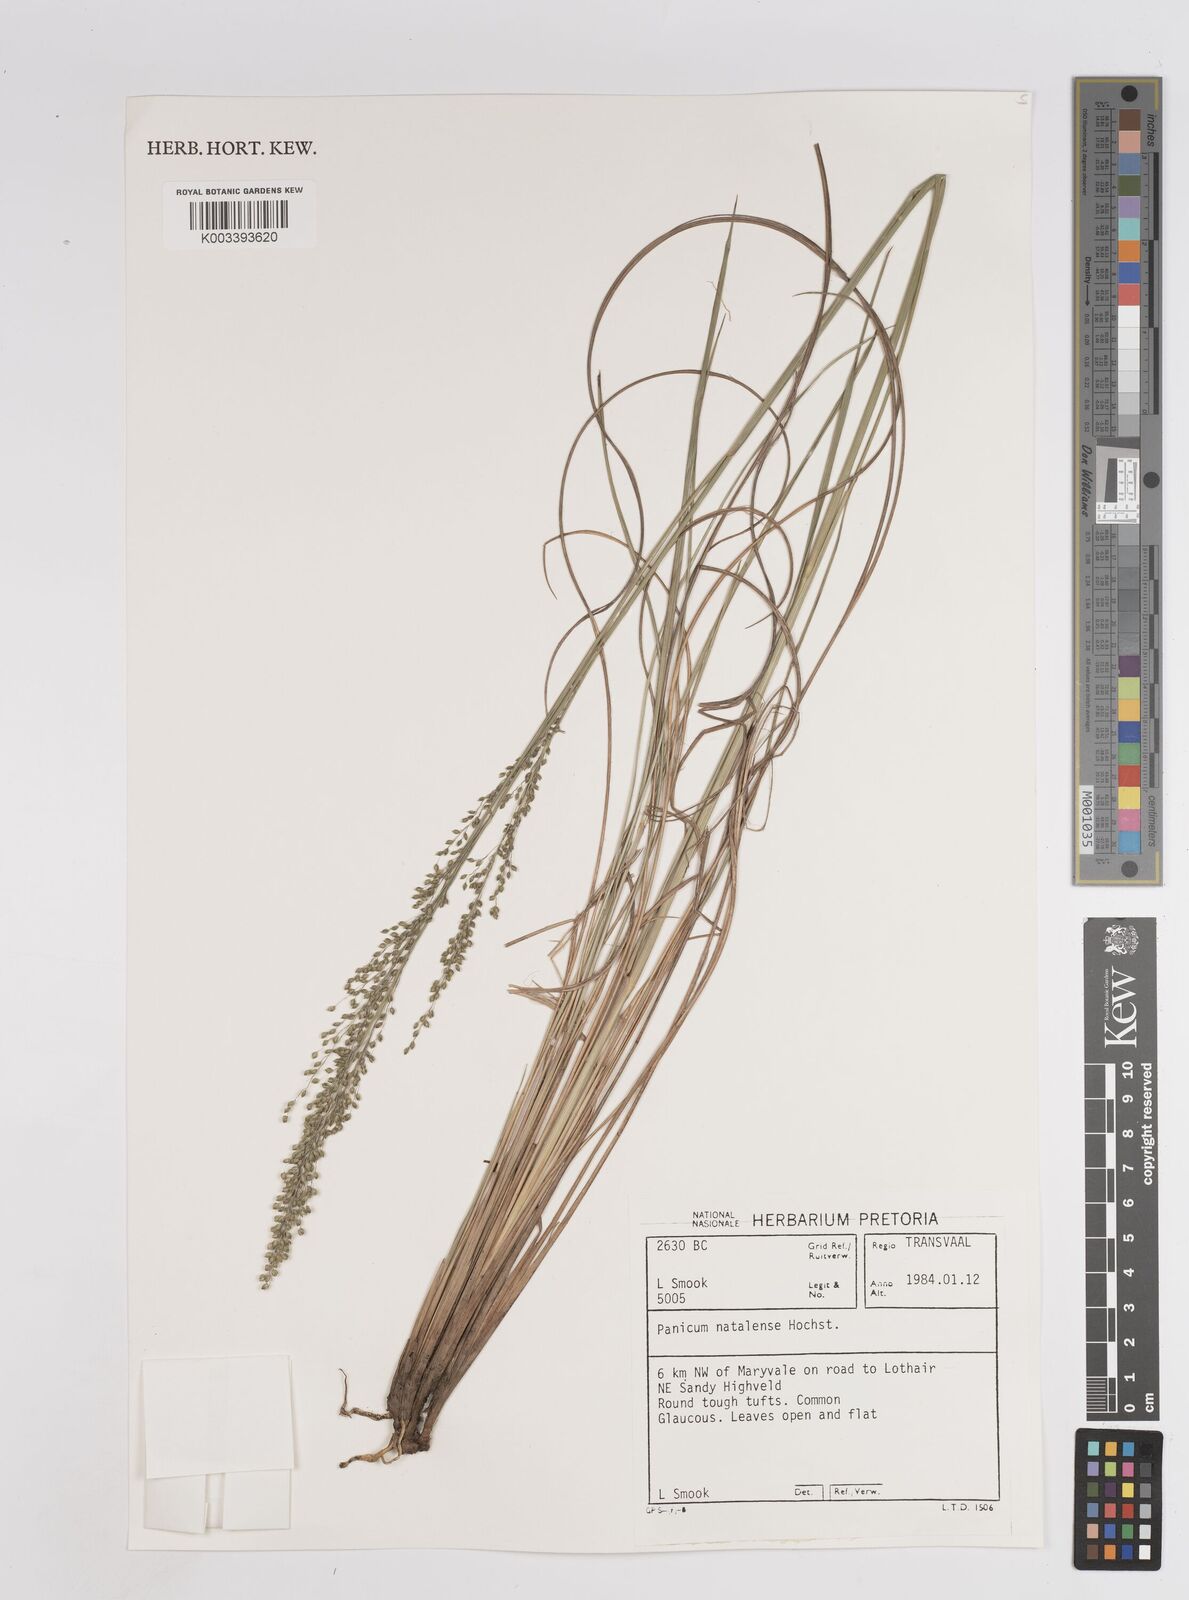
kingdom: Plantae
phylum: Tracheophyta
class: Liliopsida
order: Poales
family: Poaceae
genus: Trichanthecium
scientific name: Trichanthecium natalense
